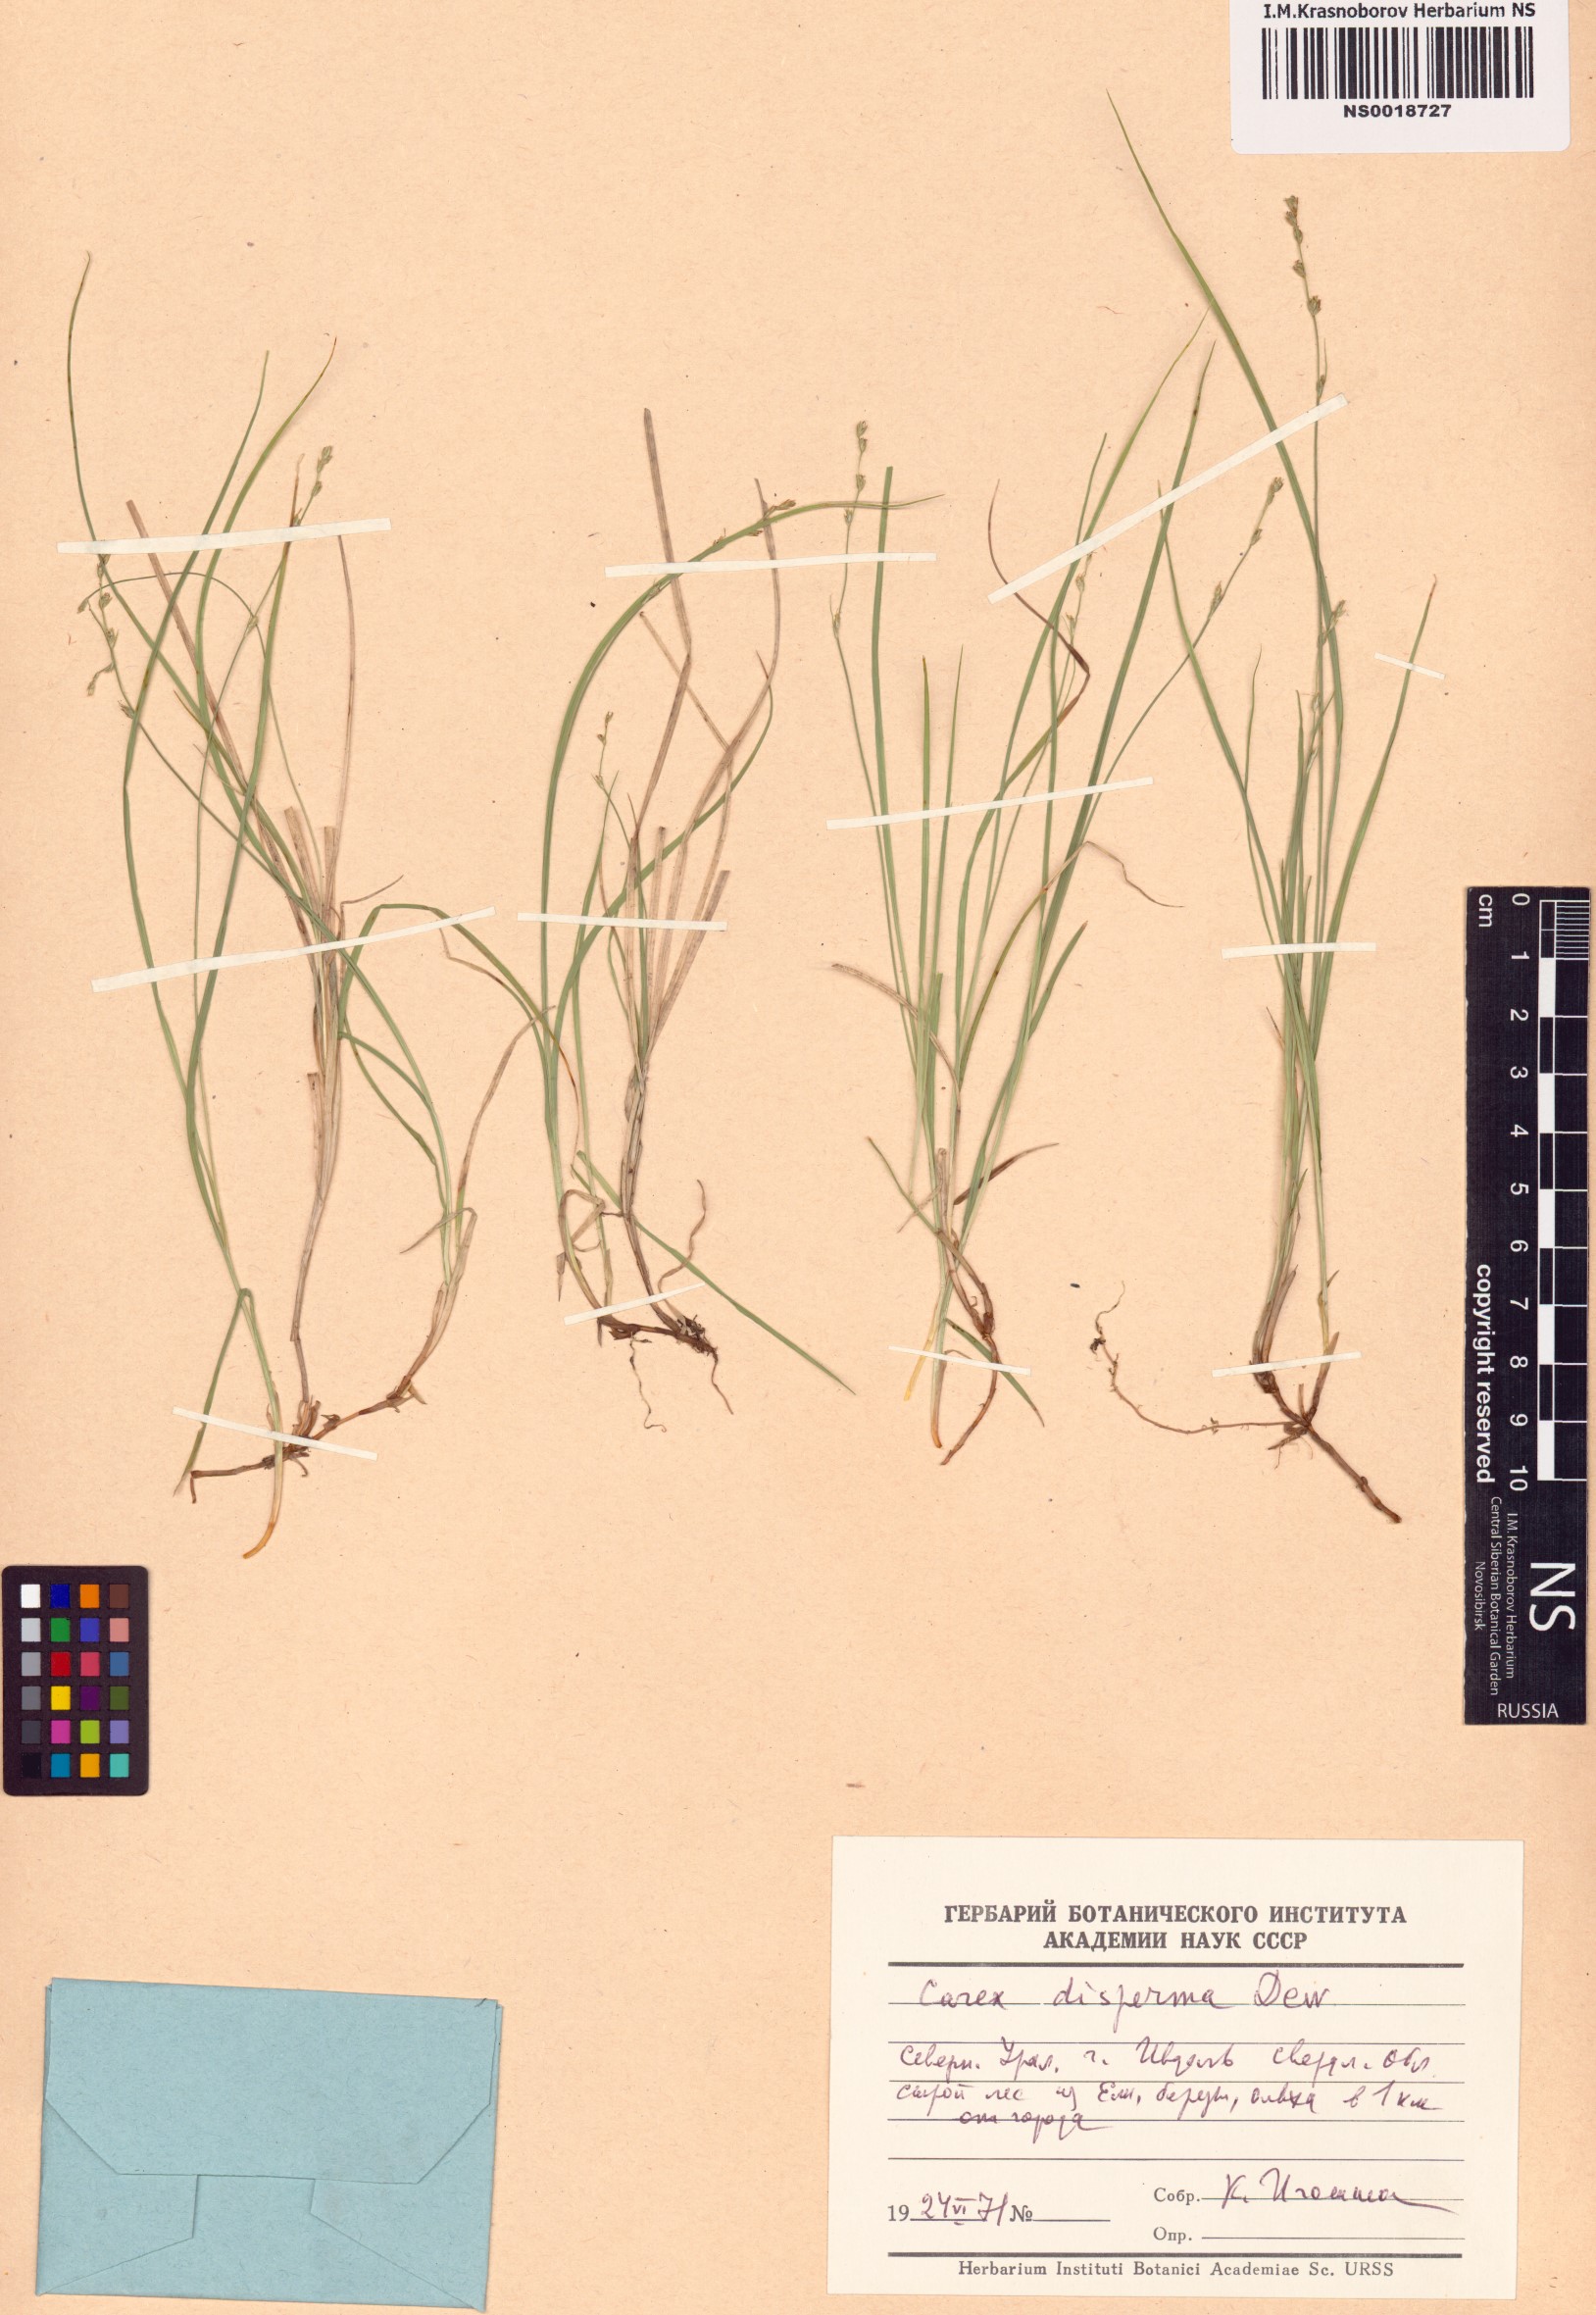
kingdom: Plantae
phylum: Tracheophyta
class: Liliopsida
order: Poales
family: Cyperaceae
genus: Carex
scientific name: Carex disperma
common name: Short-leaved sedge
